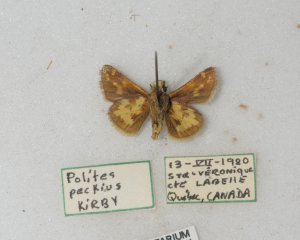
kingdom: Animalia
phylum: Arthropoda
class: Insecta
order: Lepidoptera
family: Hesperiidae
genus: Polites
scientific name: Polites coras
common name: Peck's Skipper
